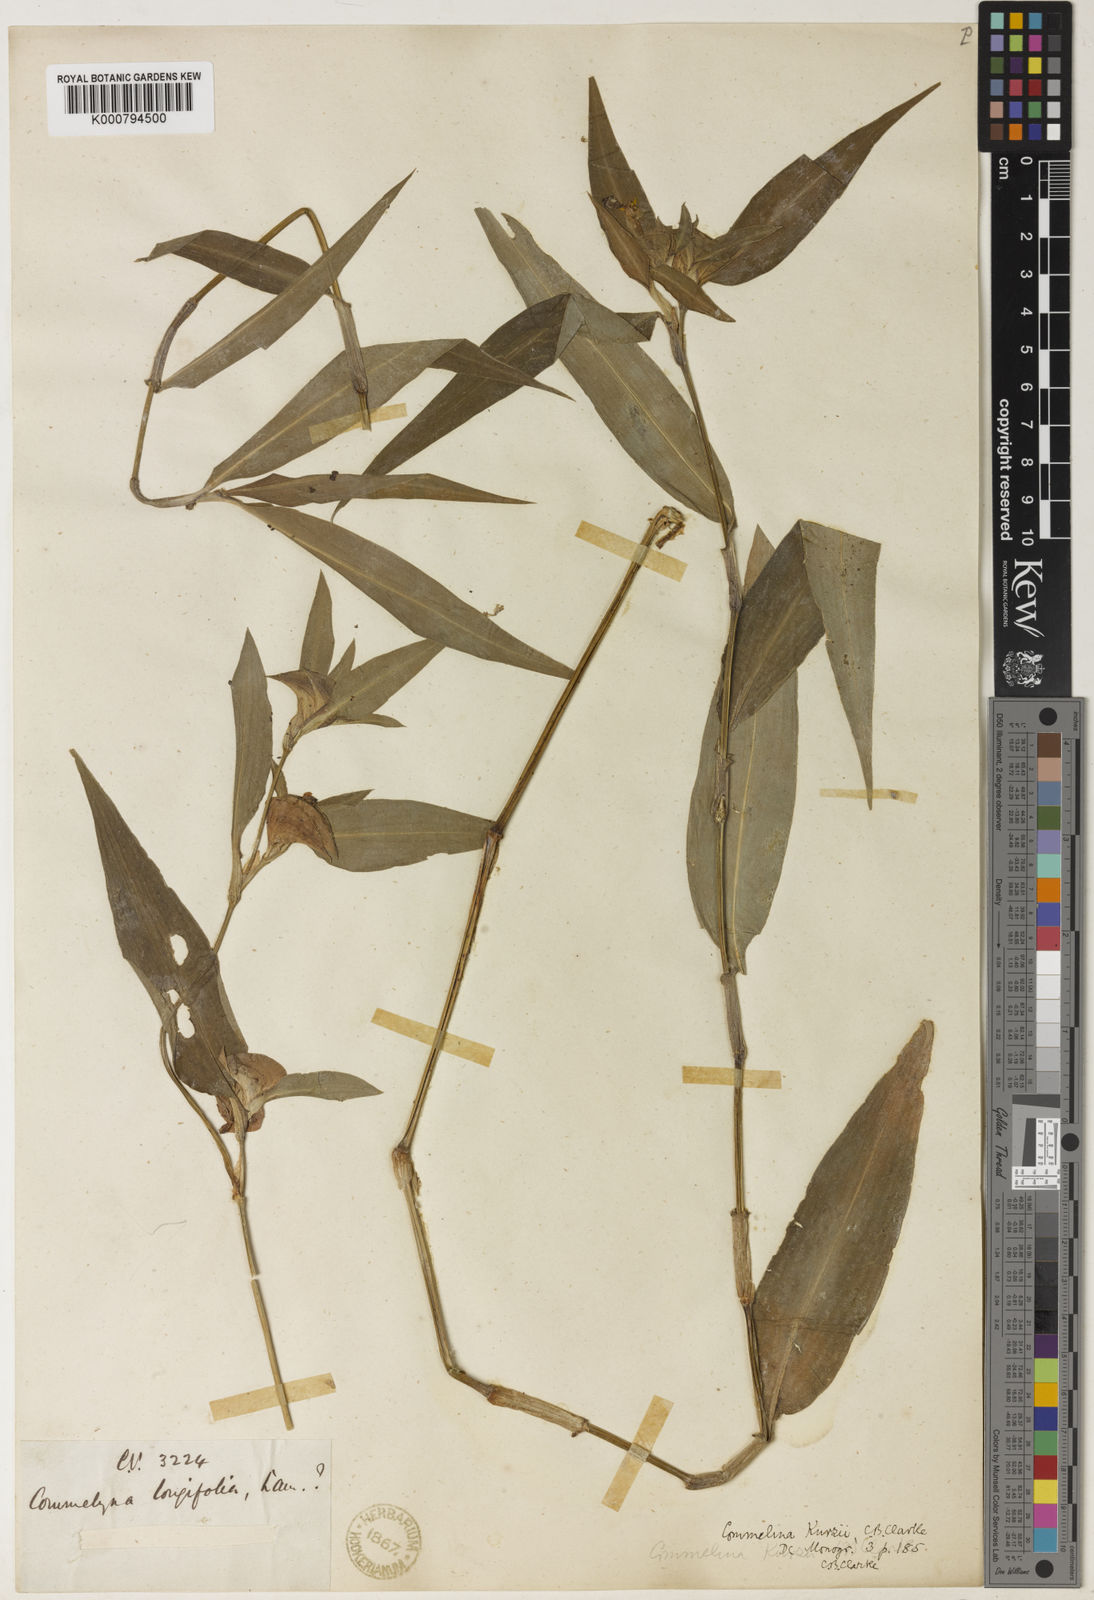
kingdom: Plantae
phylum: Tracheophyta
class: Liliopsida
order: Commelinales
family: Commelinaceae
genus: Commelina
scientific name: Commelina undulata
